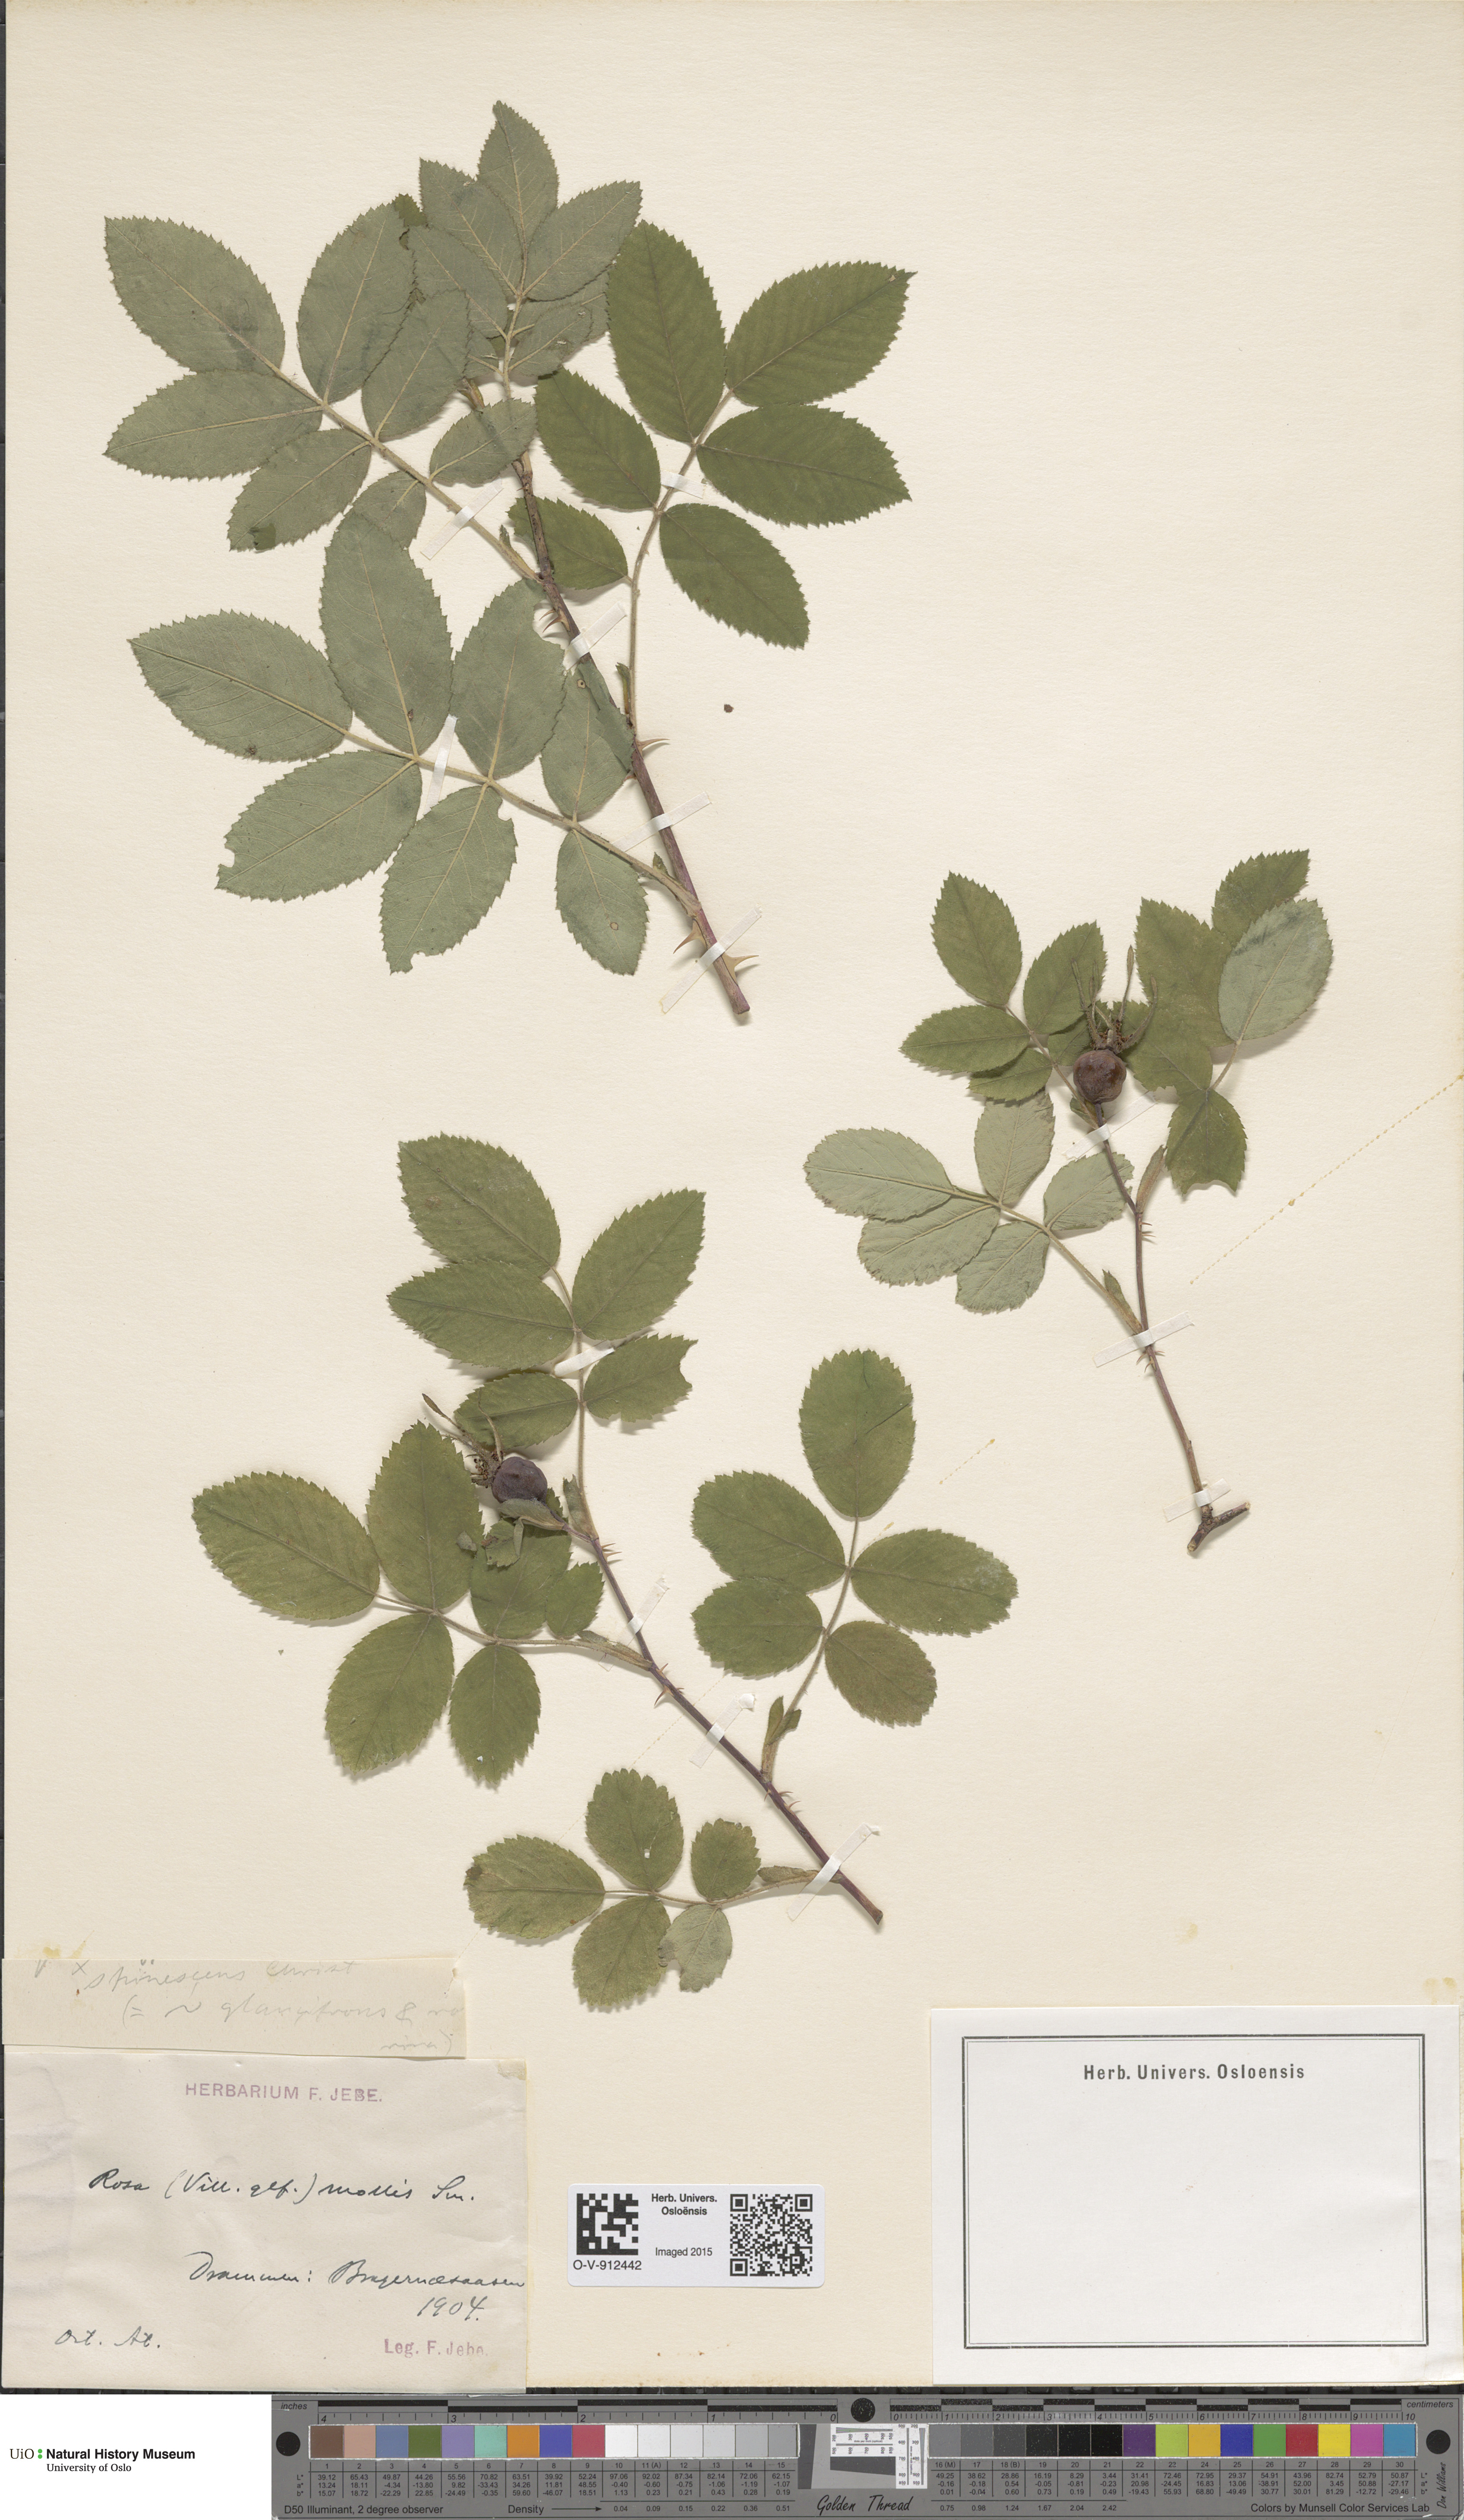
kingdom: Plantae
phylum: Tracheophyta
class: Magnoliopsida
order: Rosales
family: Rosaceae
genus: Rosa
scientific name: Rosa mollis
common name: Rose
